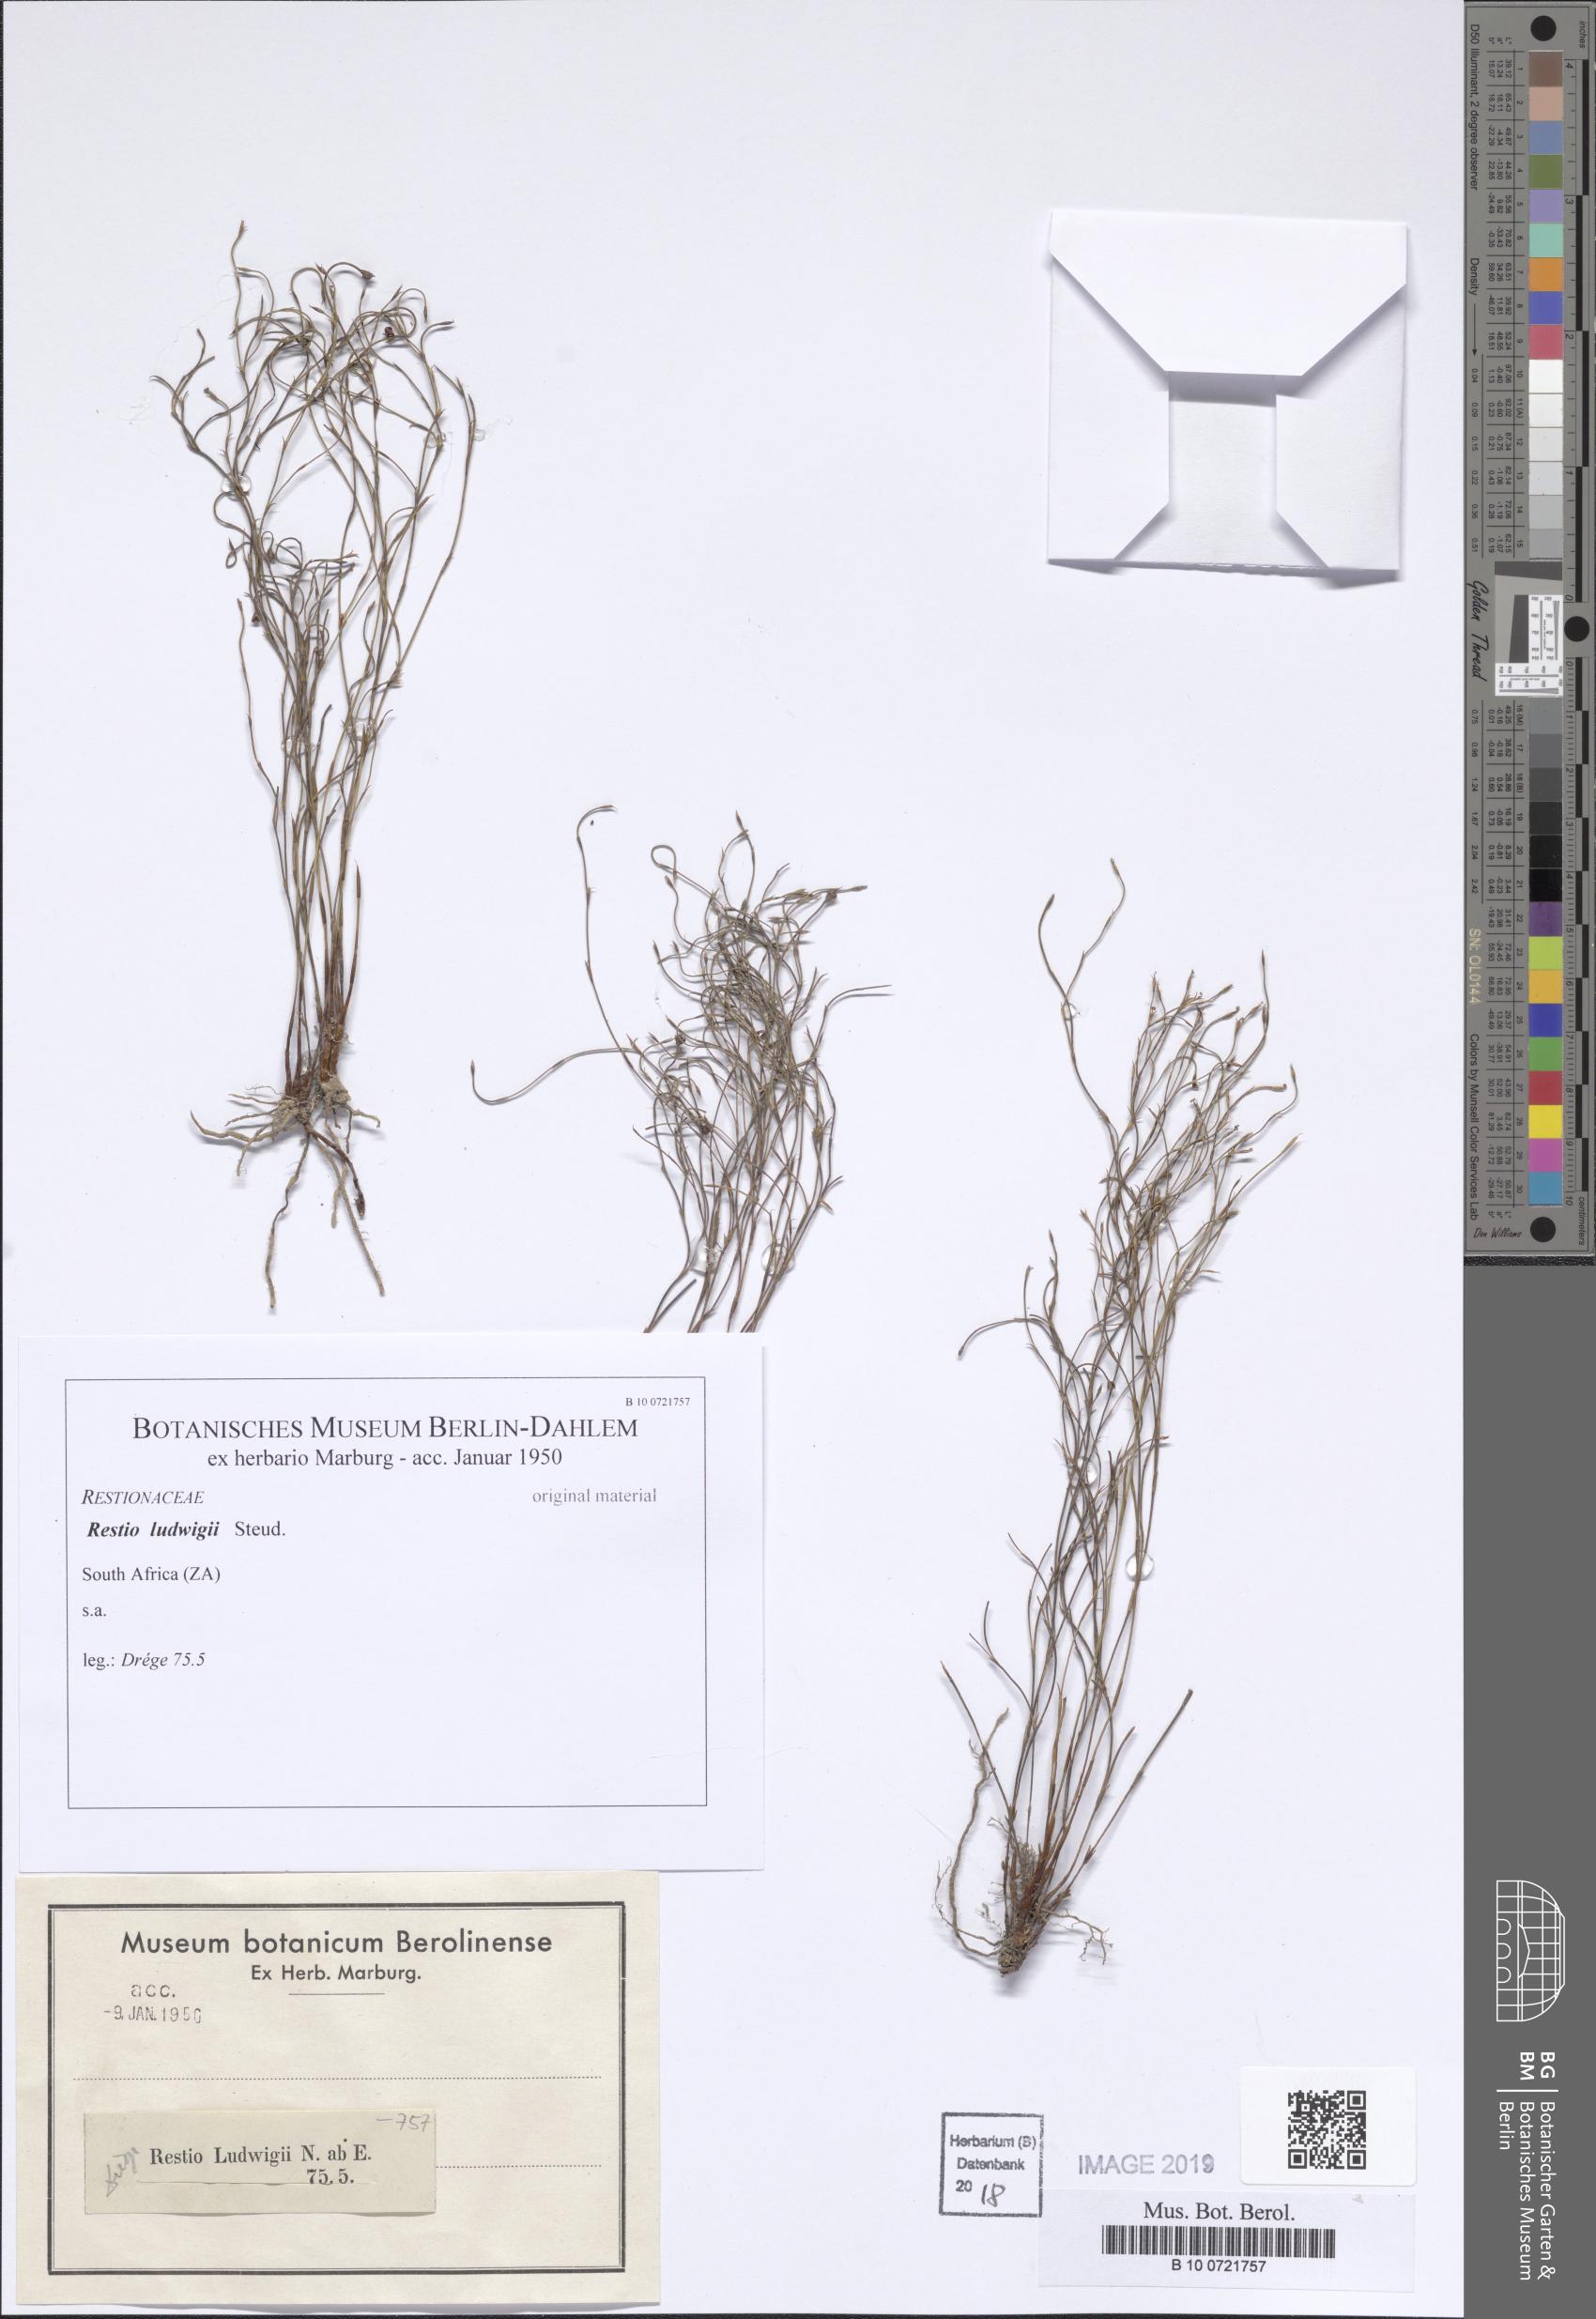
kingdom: Plantae
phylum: Tracheophyta
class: Liliopsida
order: Poales
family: Restionaceae
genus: Restio
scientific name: Restio tenuissimus
